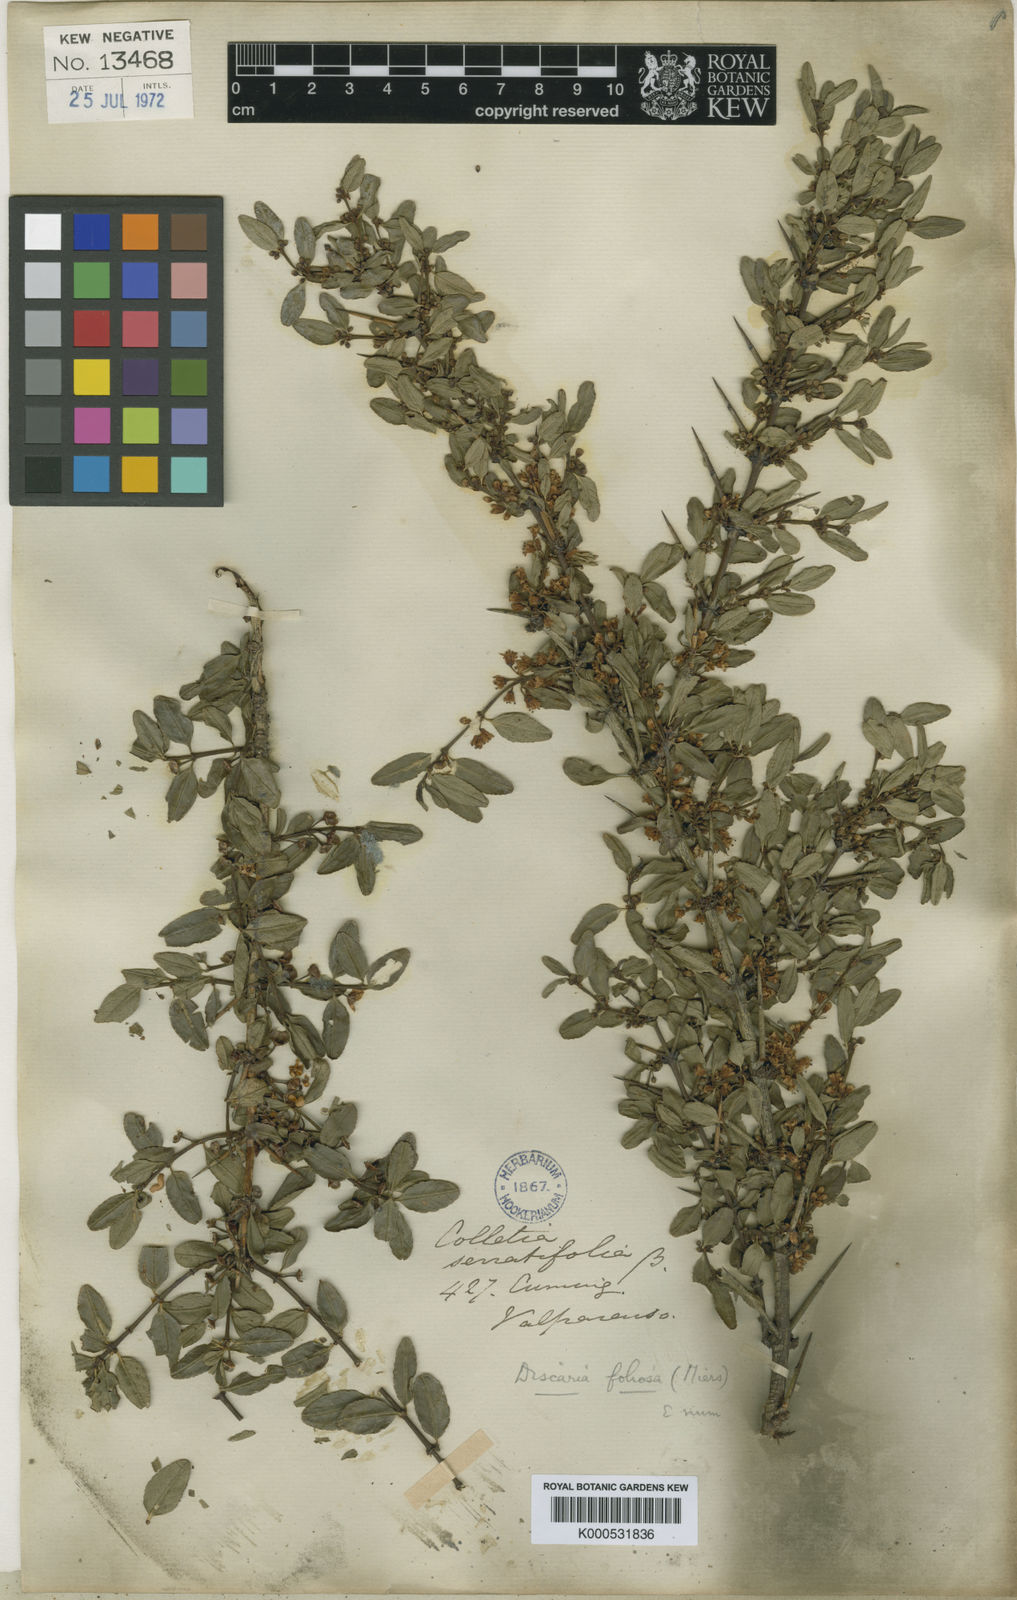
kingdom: Plantae
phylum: Tracheophyta
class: Magnoliopsida
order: Rosales
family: Rhamnaceae
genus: Discaria
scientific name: Discaria chacaye
